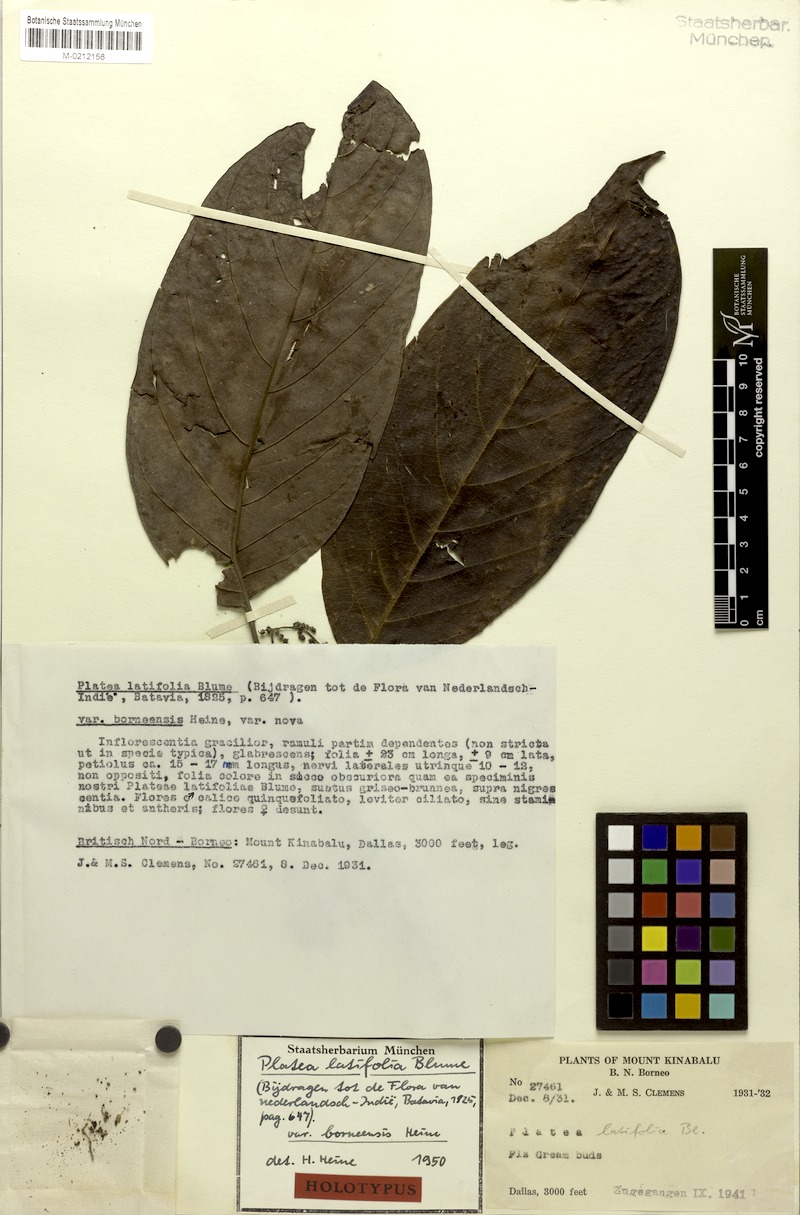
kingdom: Plantae
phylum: Tracheophyta
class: Magnoliopsida
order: Metteniusales
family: Metteniusaceae
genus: Platea
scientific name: Platea excelsa
